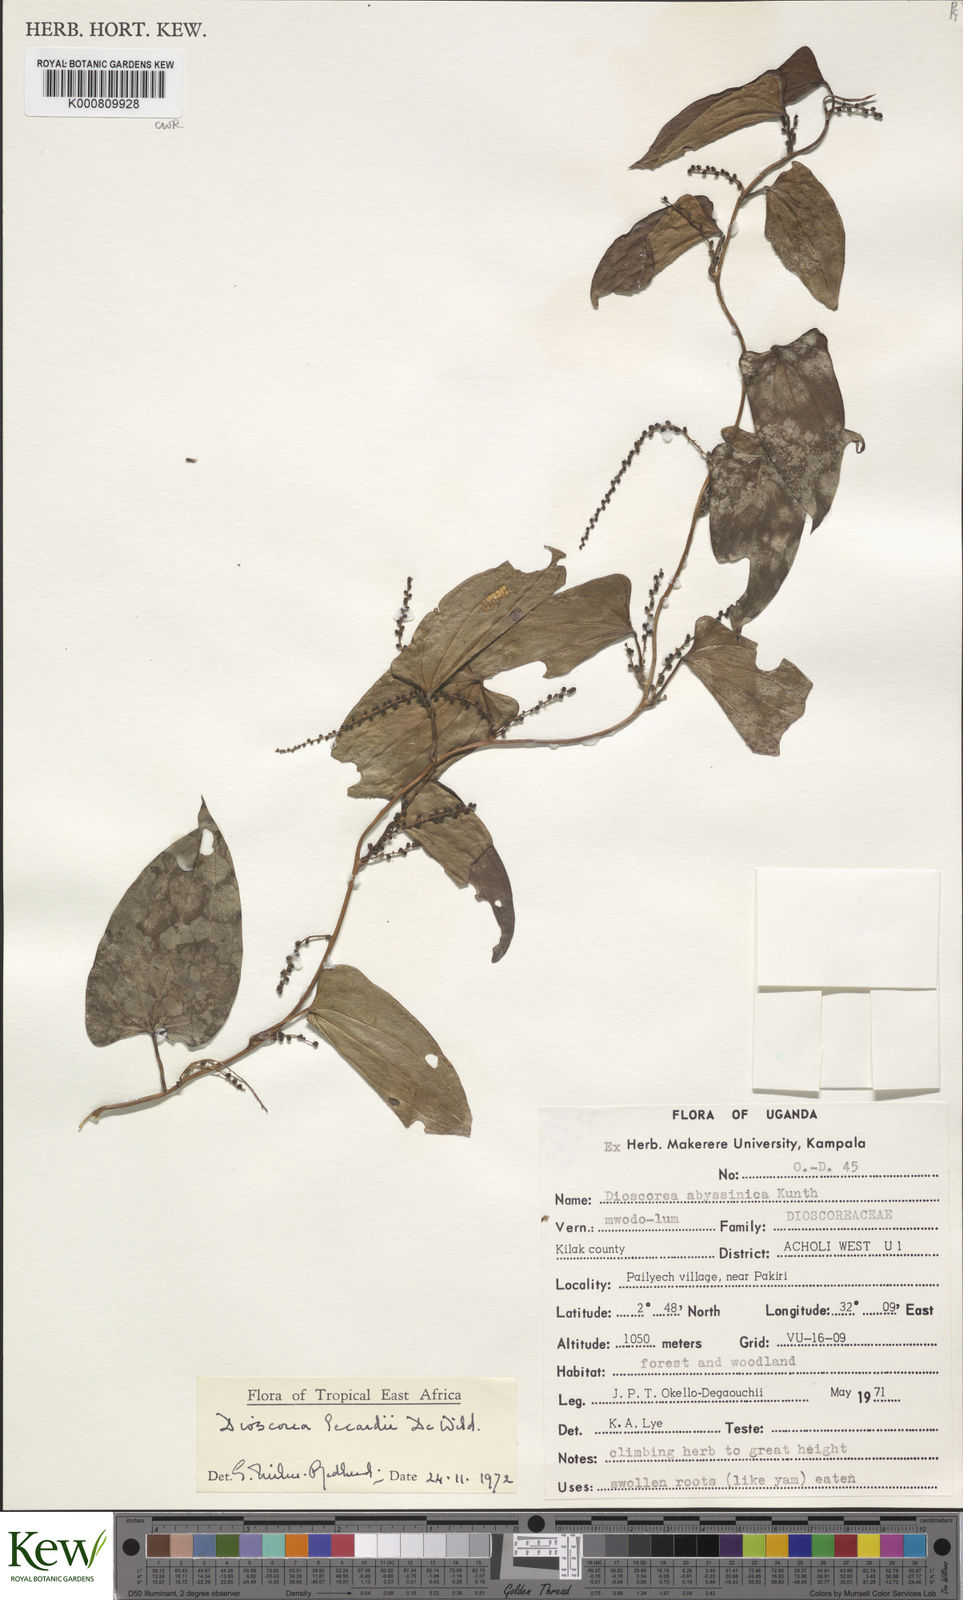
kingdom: Plantae
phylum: Tracheophyta
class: Liliopsida
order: Dioscoreales
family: Dioscoreaceae
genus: Dioscorea
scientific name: Dioscorea sagittifolia
